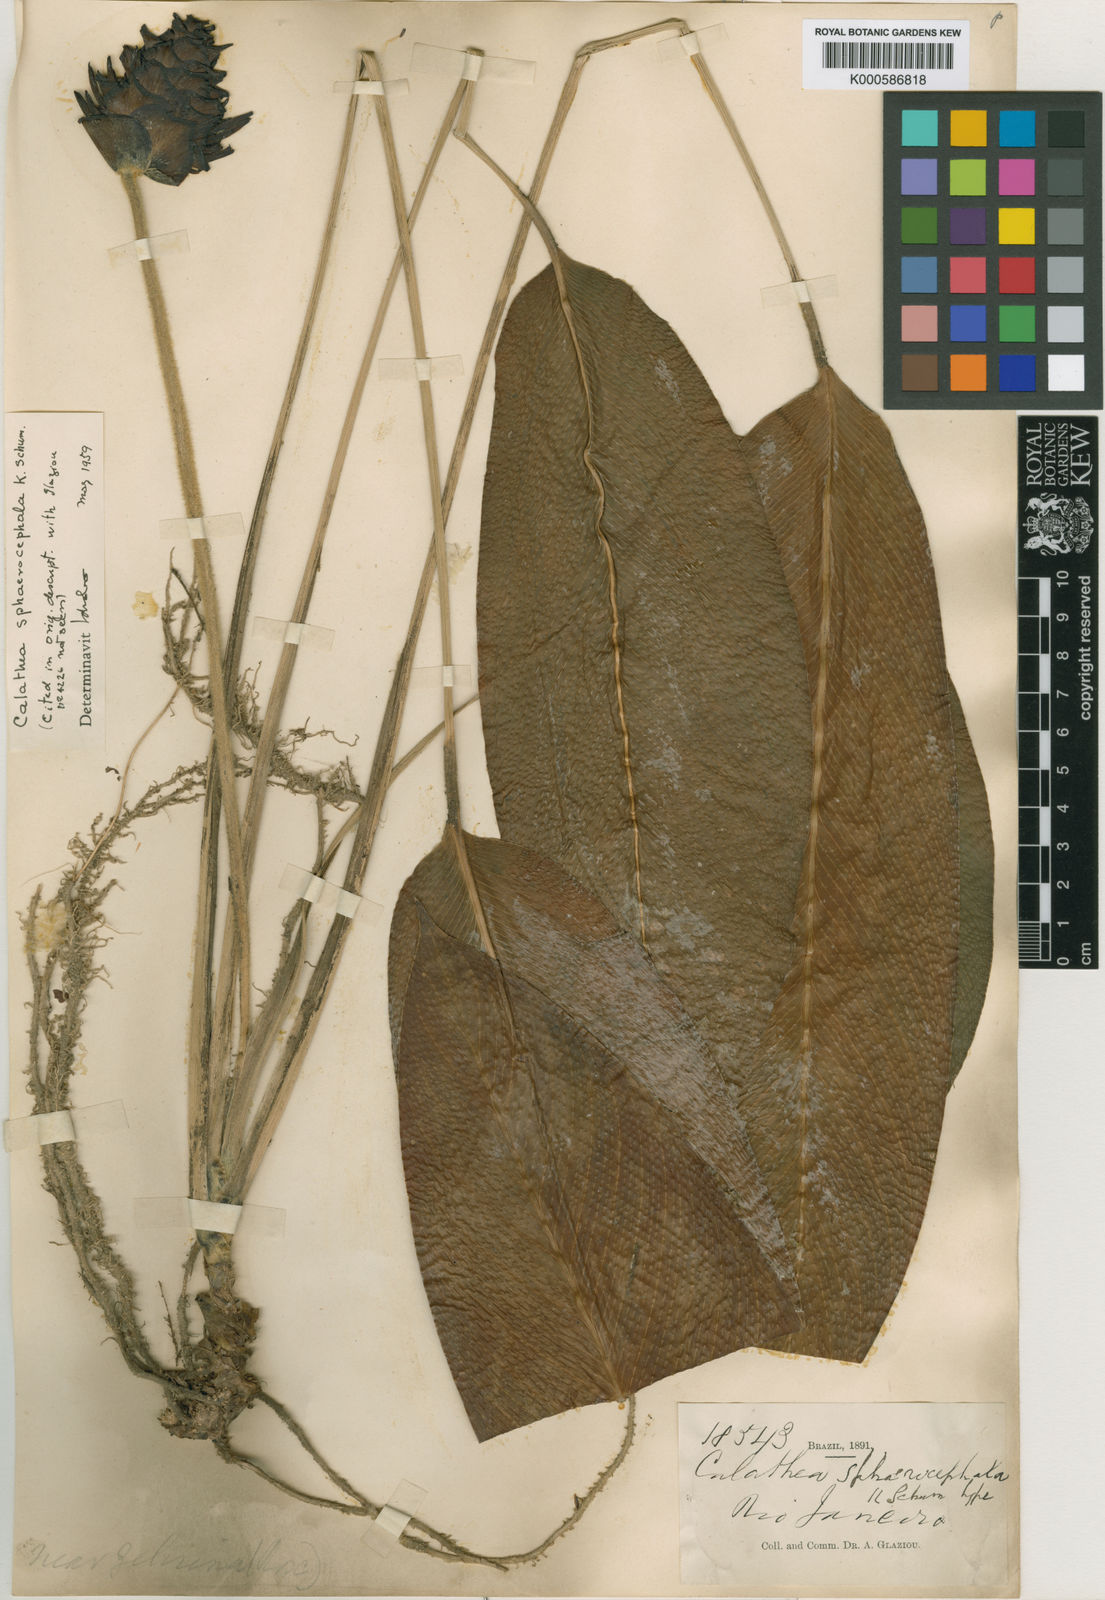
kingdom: Plantae
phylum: Tracheophyta
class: Liliopsida
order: Zingiberales
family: Marantaceae
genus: Goeppertia
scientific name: Goeppertia sphaerocephala
